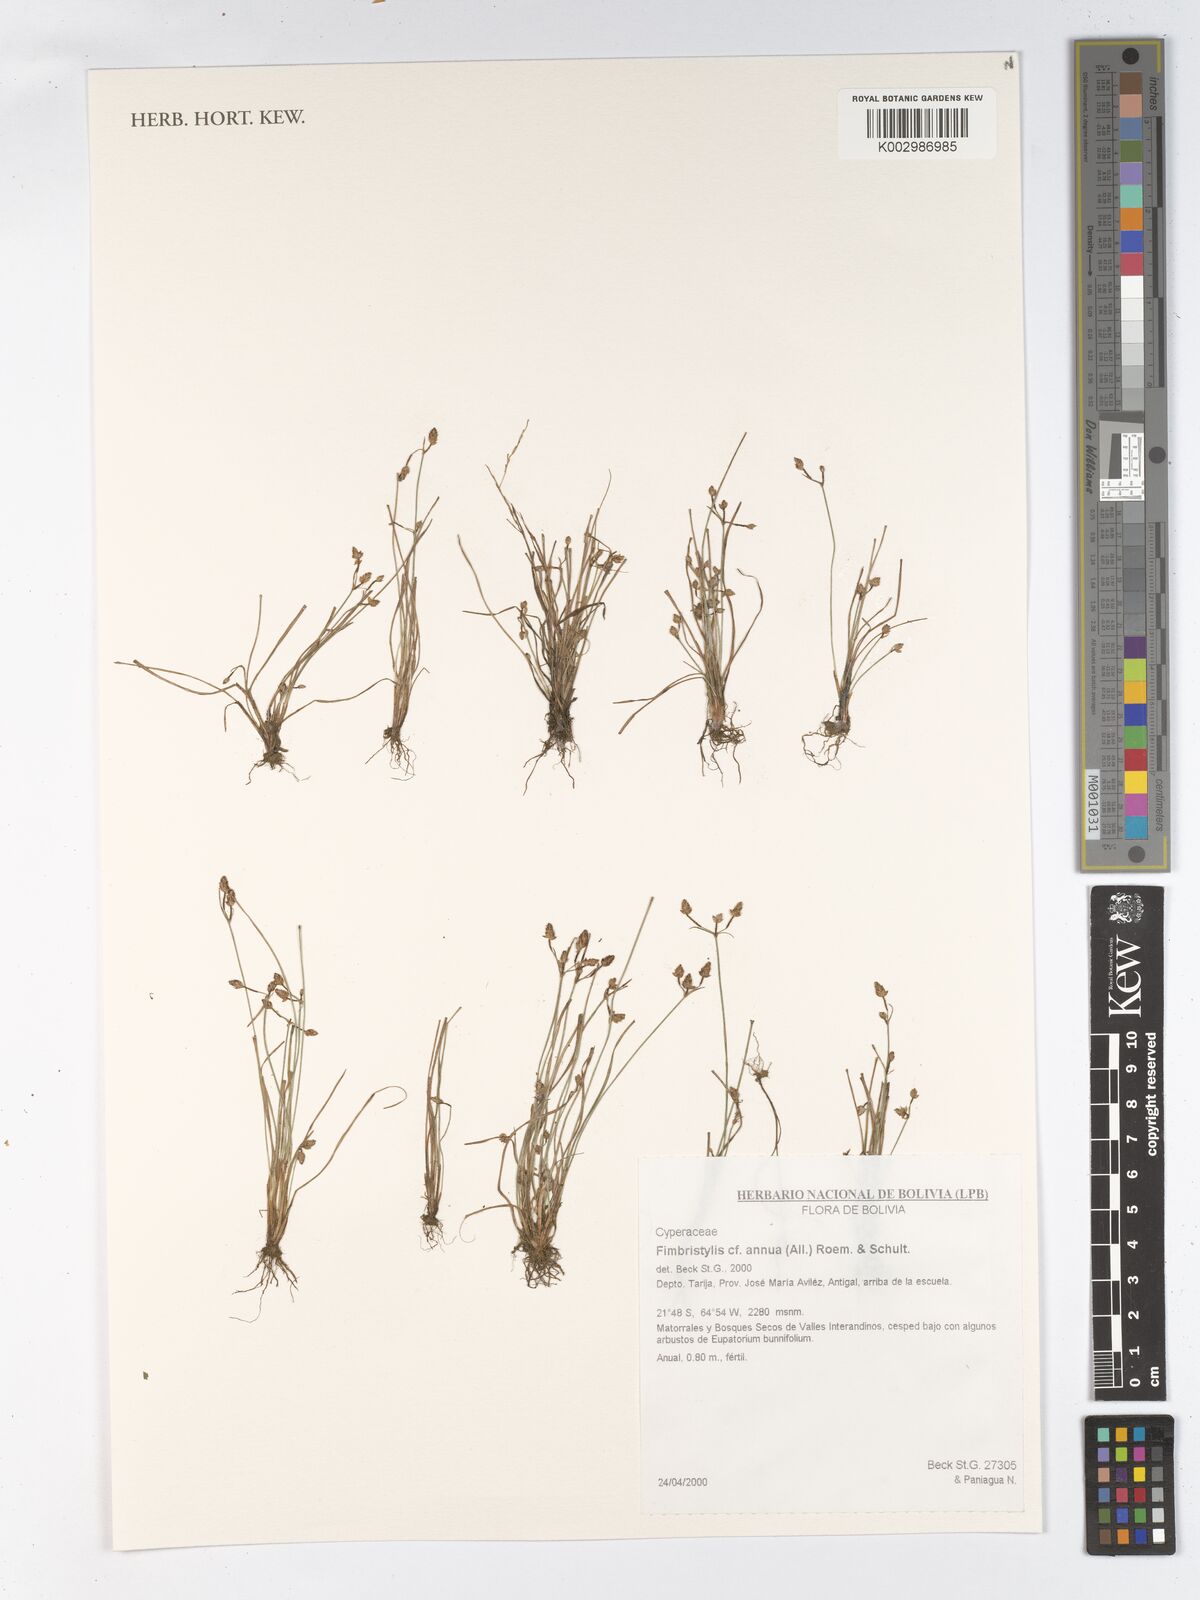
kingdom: Plantae
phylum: Tracheophyta
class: Liliopsida
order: Poales
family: Cyperaceae
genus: Fimbristylis
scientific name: Fimbristylis dichotoma
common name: Forked fimbry
